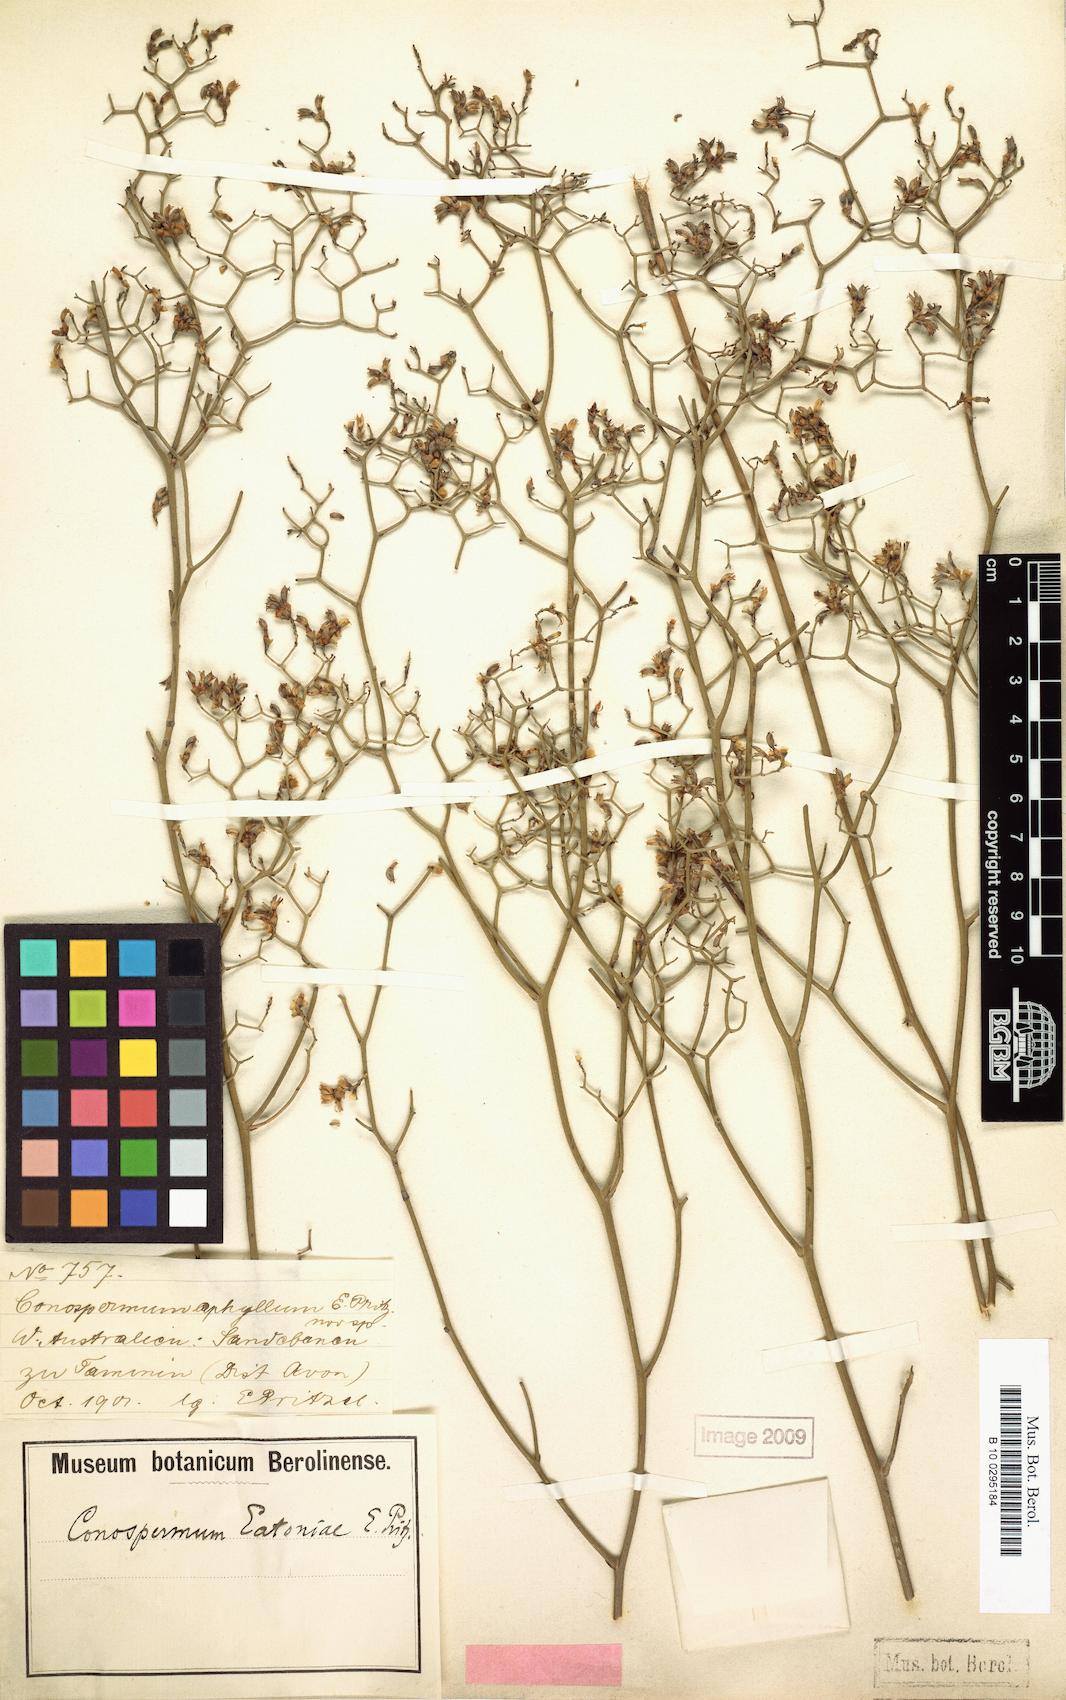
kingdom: Plantae
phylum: Tracheophyta
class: Magnoliopsida
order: Proteales
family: Proteaceae
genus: Conospermum
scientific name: Conospermum eatoniae
